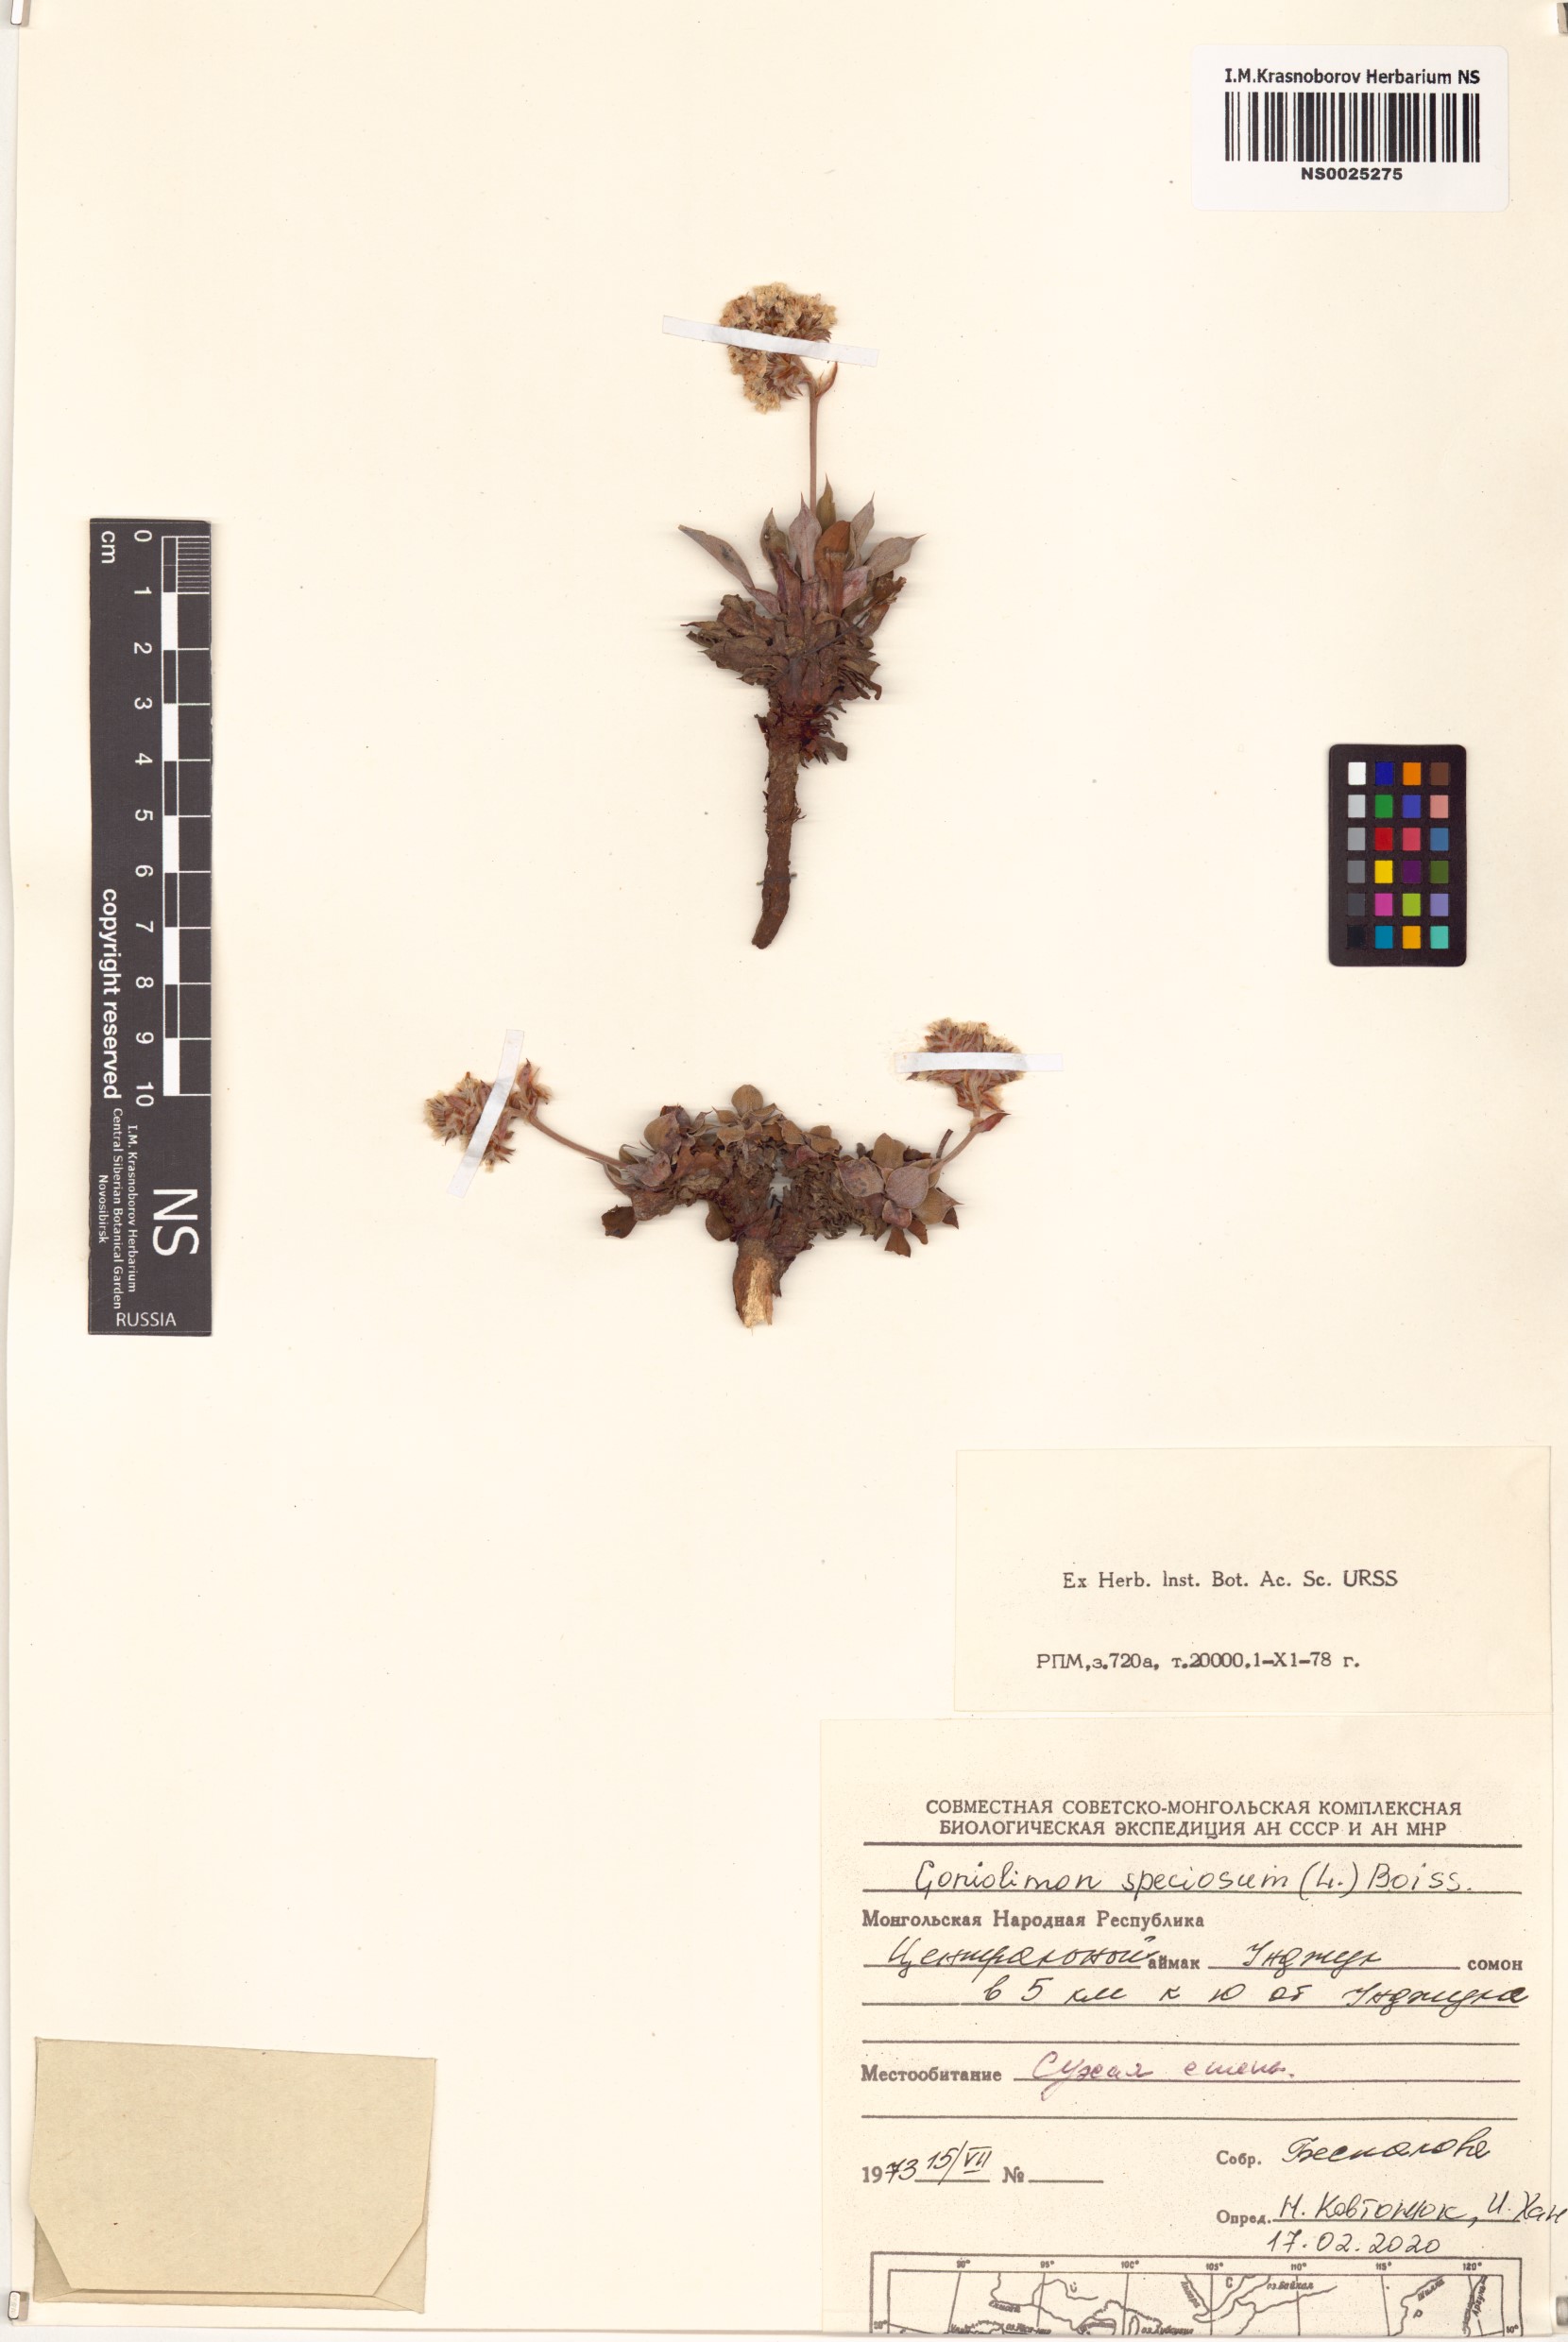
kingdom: Plantae
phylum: Tracheophyta
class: Magnoliopsida
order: Caryophyllales
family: Plumbaginaceae
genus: Goniolimon
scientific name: Goniolimon speciosum
